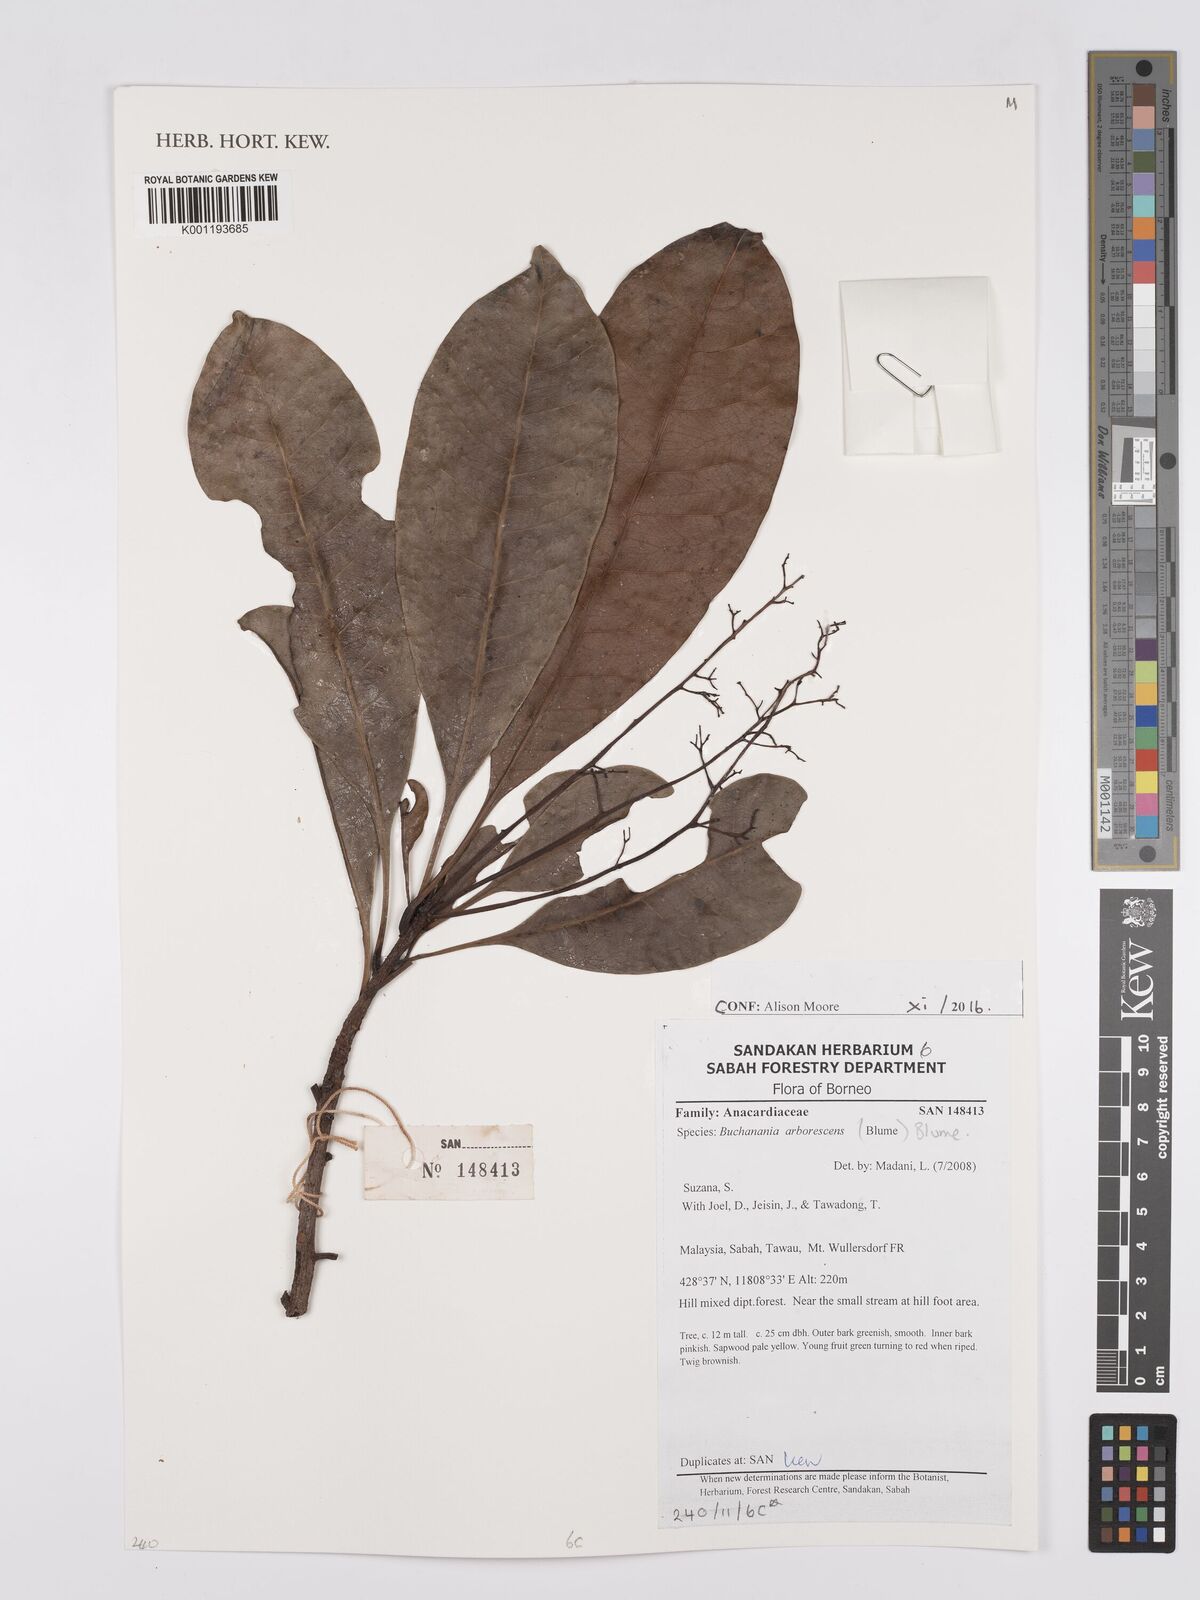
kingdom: Plantae
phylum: Tracheophyta
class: Magnoliopsida
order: Sapindales
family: Anacardiaceae
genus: Buchanania
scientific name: Buchanania arborescens
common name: Sparrow’s mango
